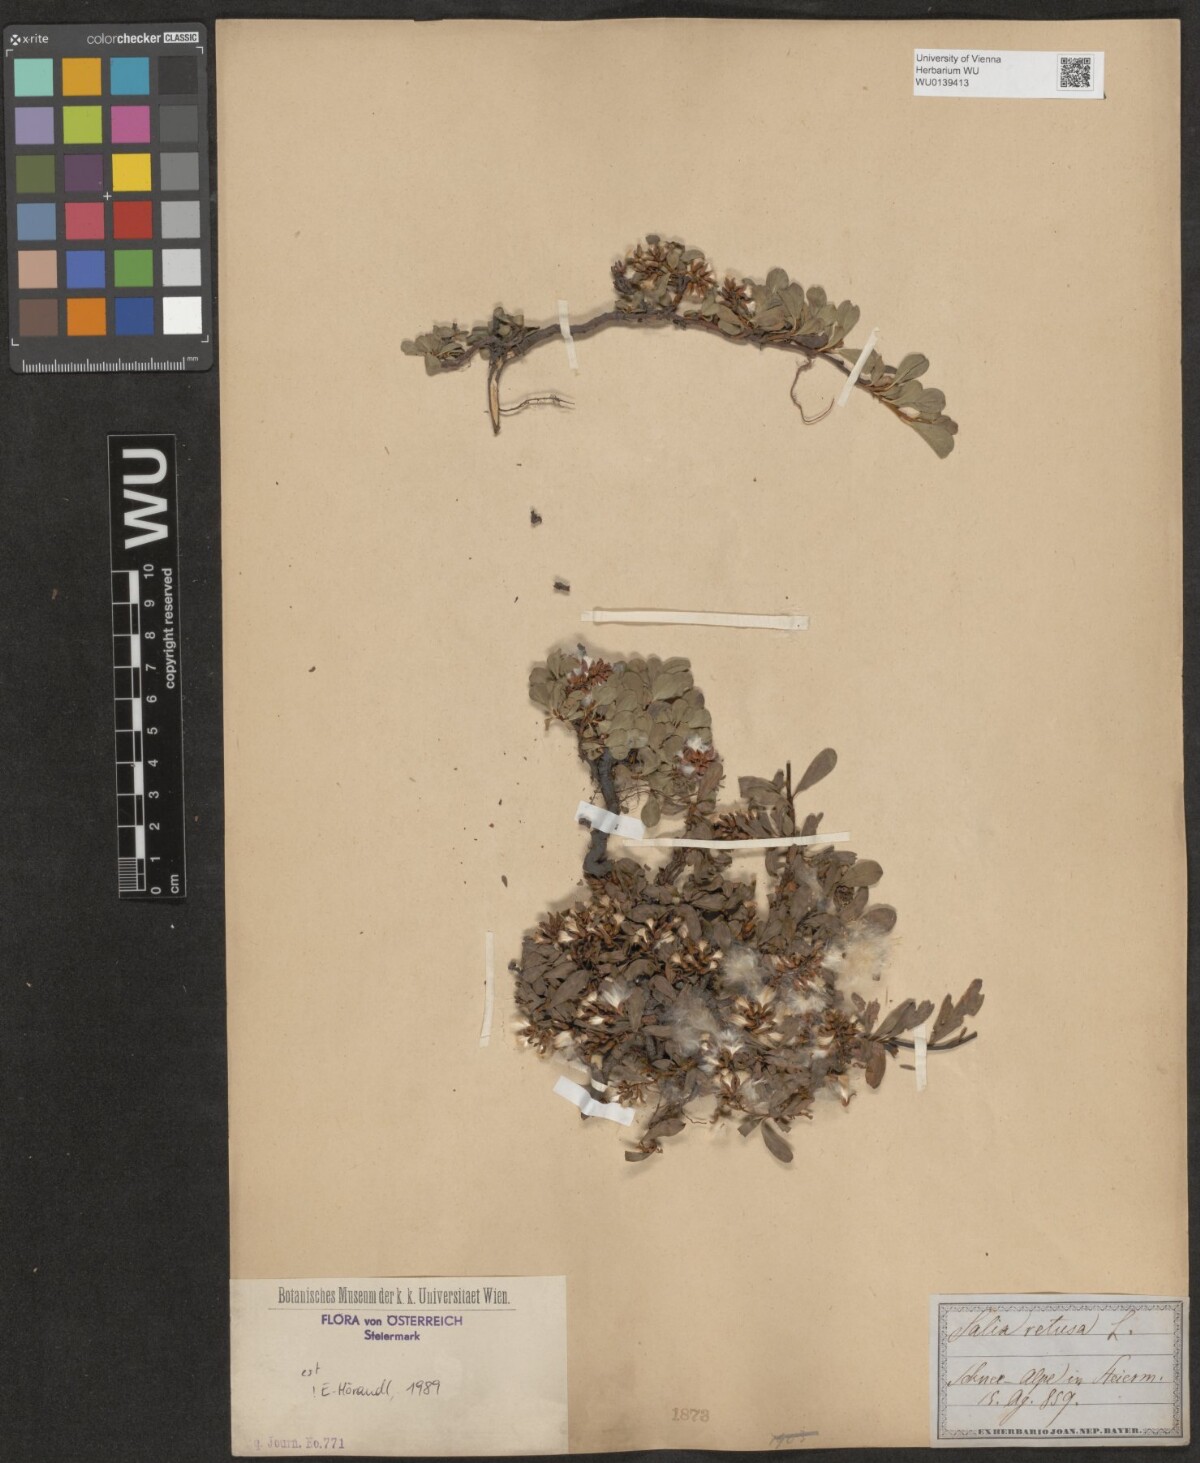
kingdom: Plantae
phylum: Tracheophyta
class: Magnoliopsida
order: Malpighiales
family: Salicaceae
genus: Salix
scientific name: Salix retusa
